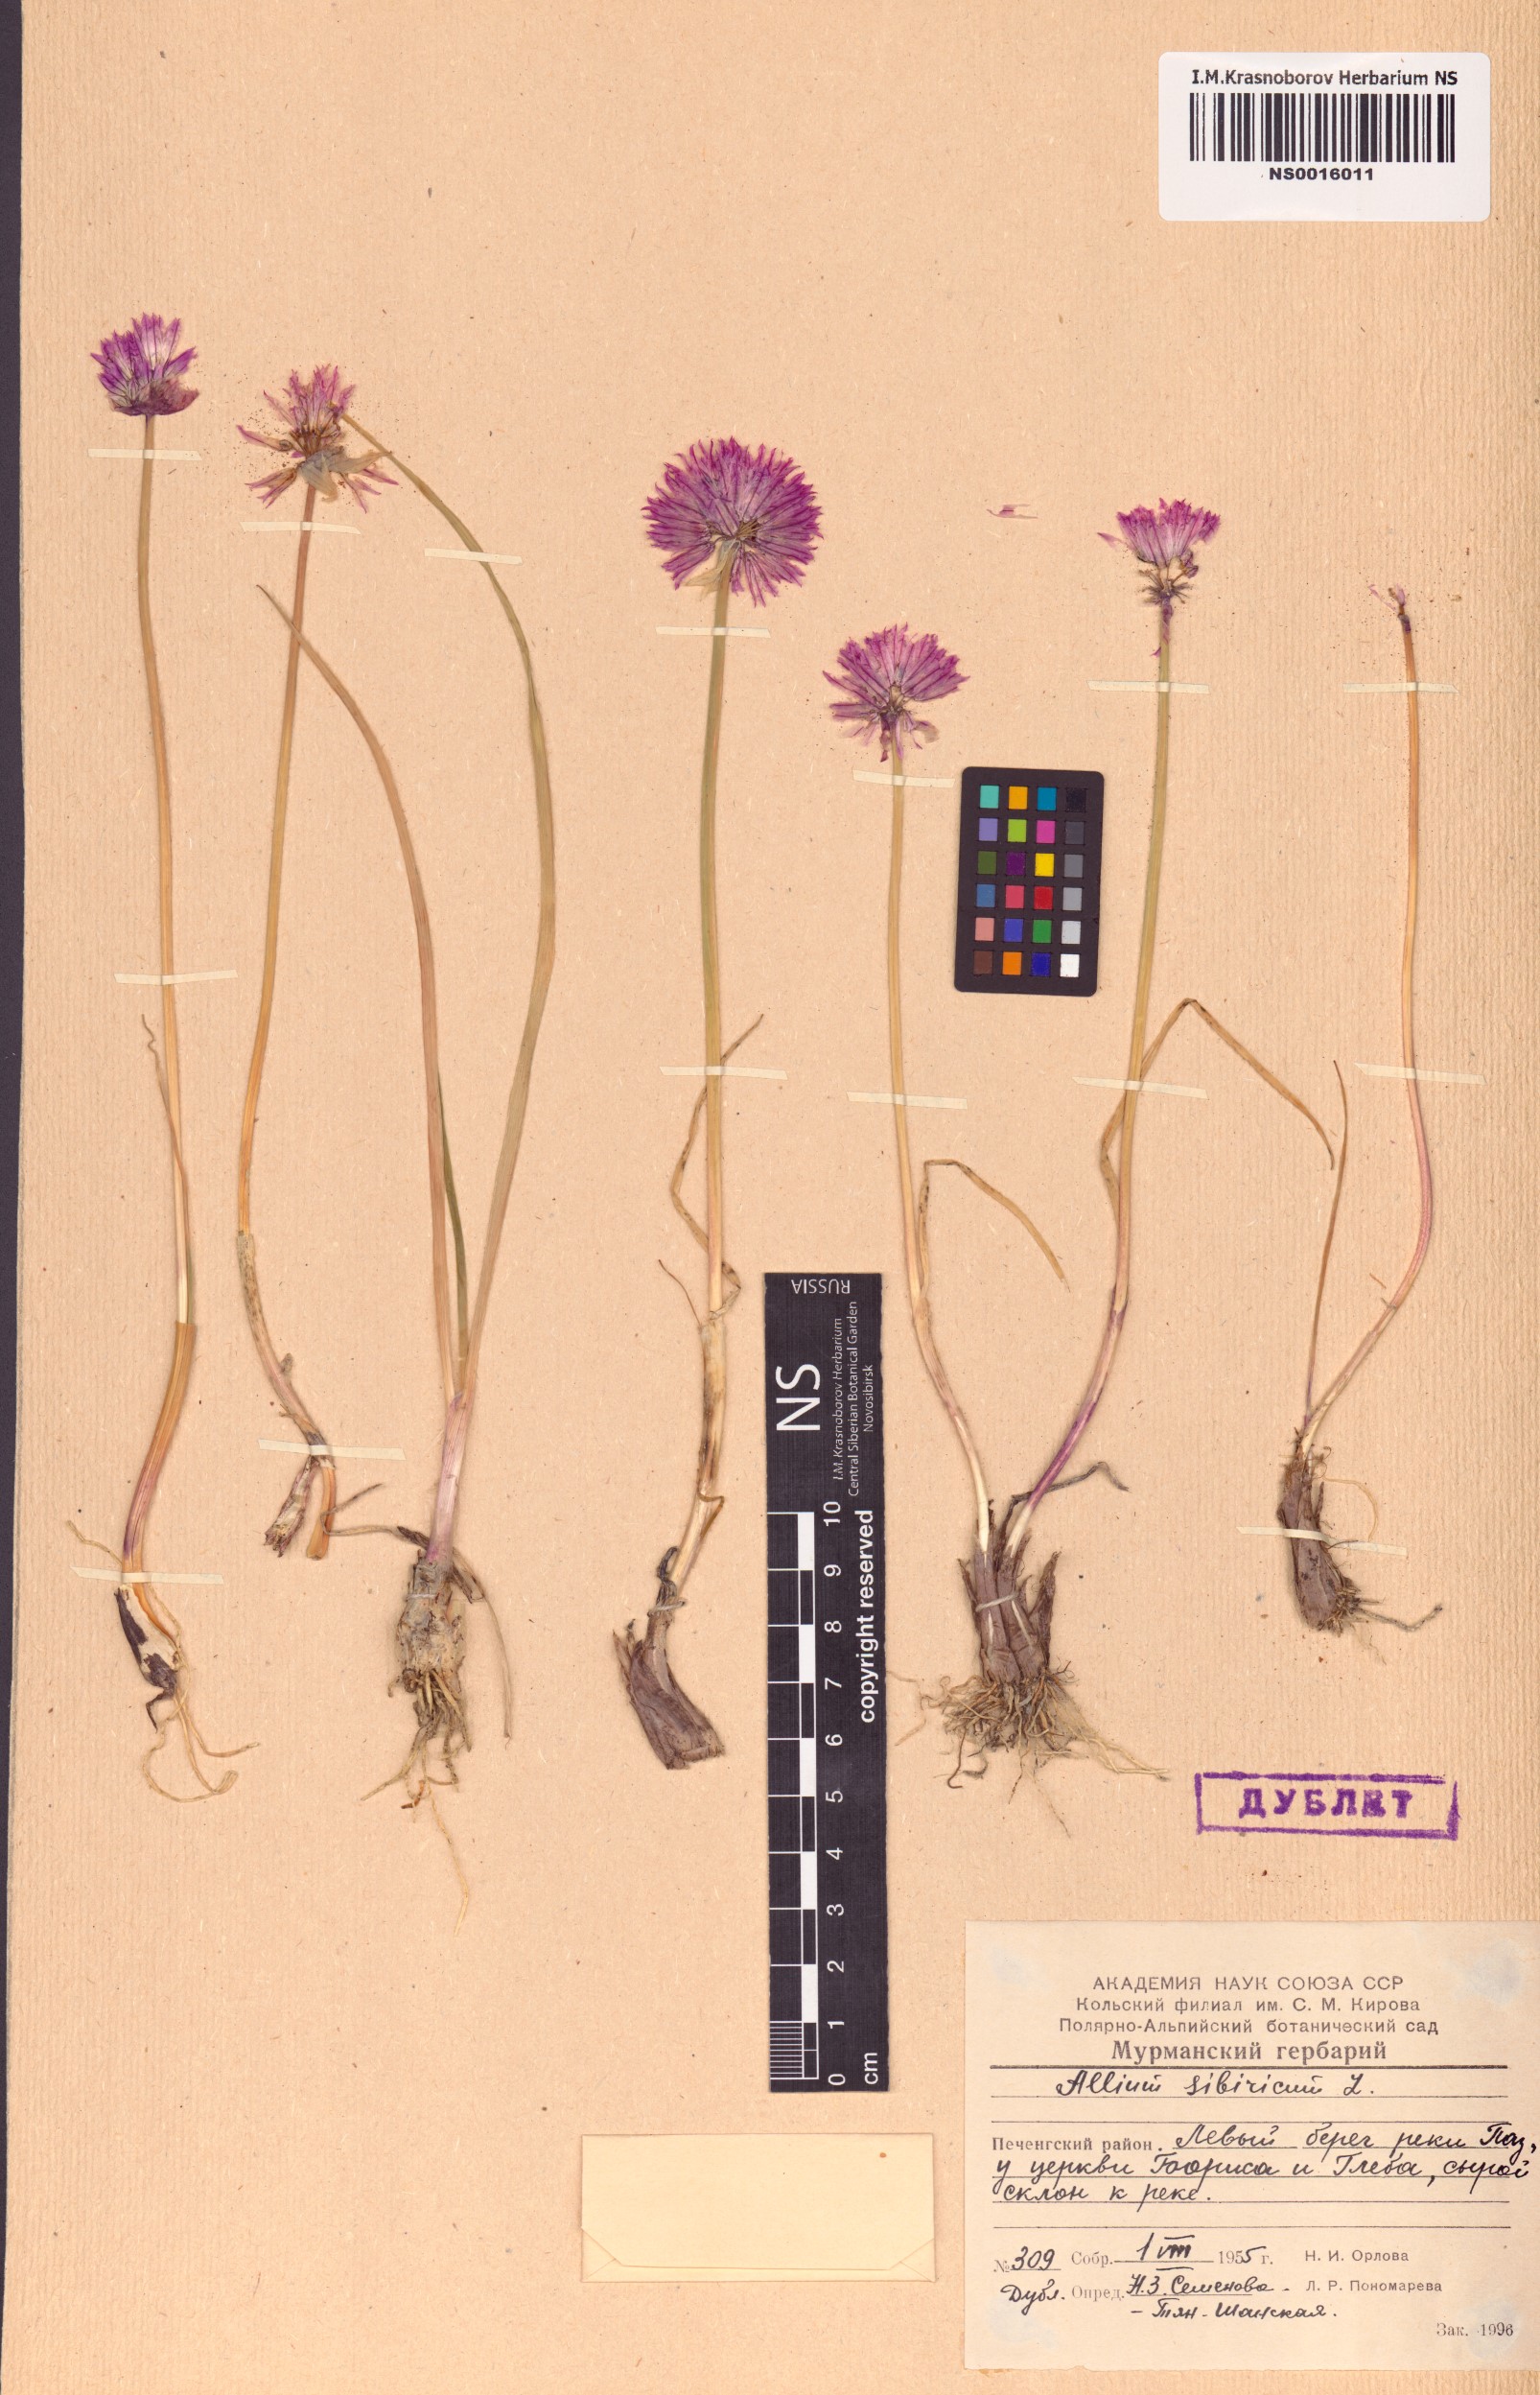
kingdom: Plantae
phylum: Tracheophyta
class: Liliopsida
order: Asparagales
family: Amaryllidaceae
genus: Allium
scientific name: Allium schoenoprasum
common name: Chives
